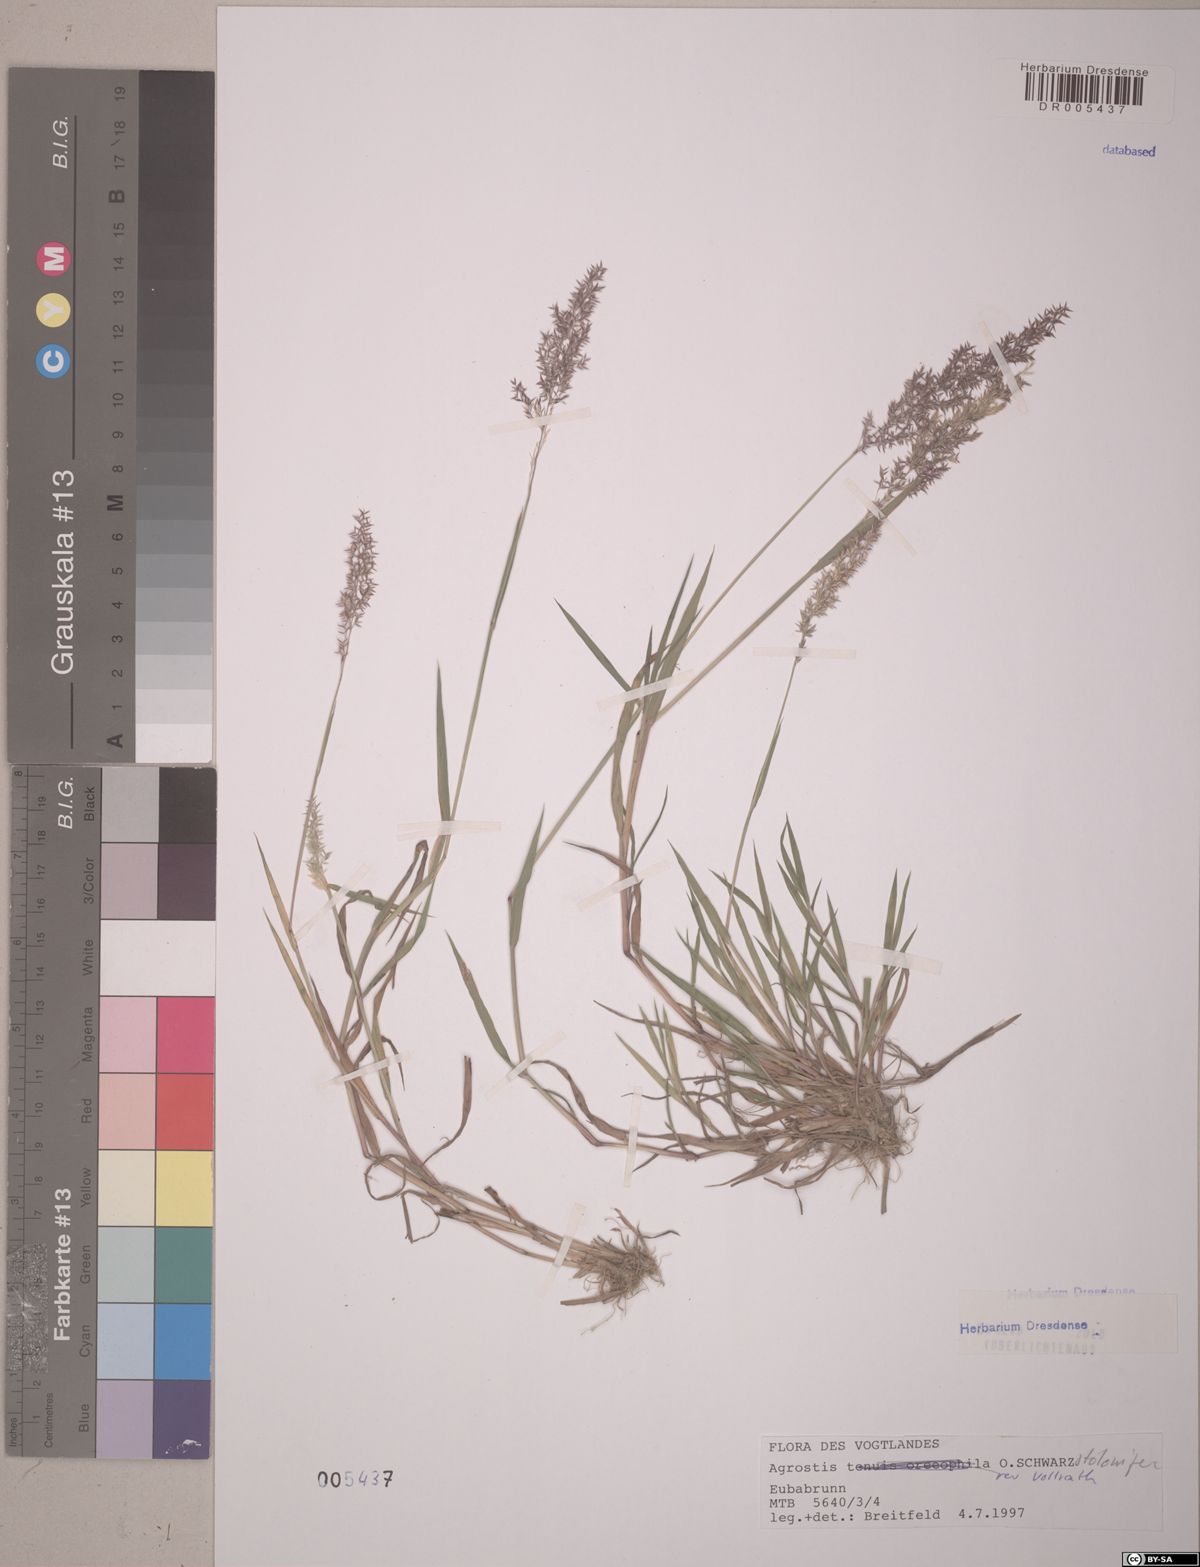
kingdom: Plantae
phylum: Tracheophyta
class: Liliopsida
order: Poales
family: Poaceae
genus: Agrostis
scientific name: Agrostis stolonifera
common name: Creeping bentgrass
